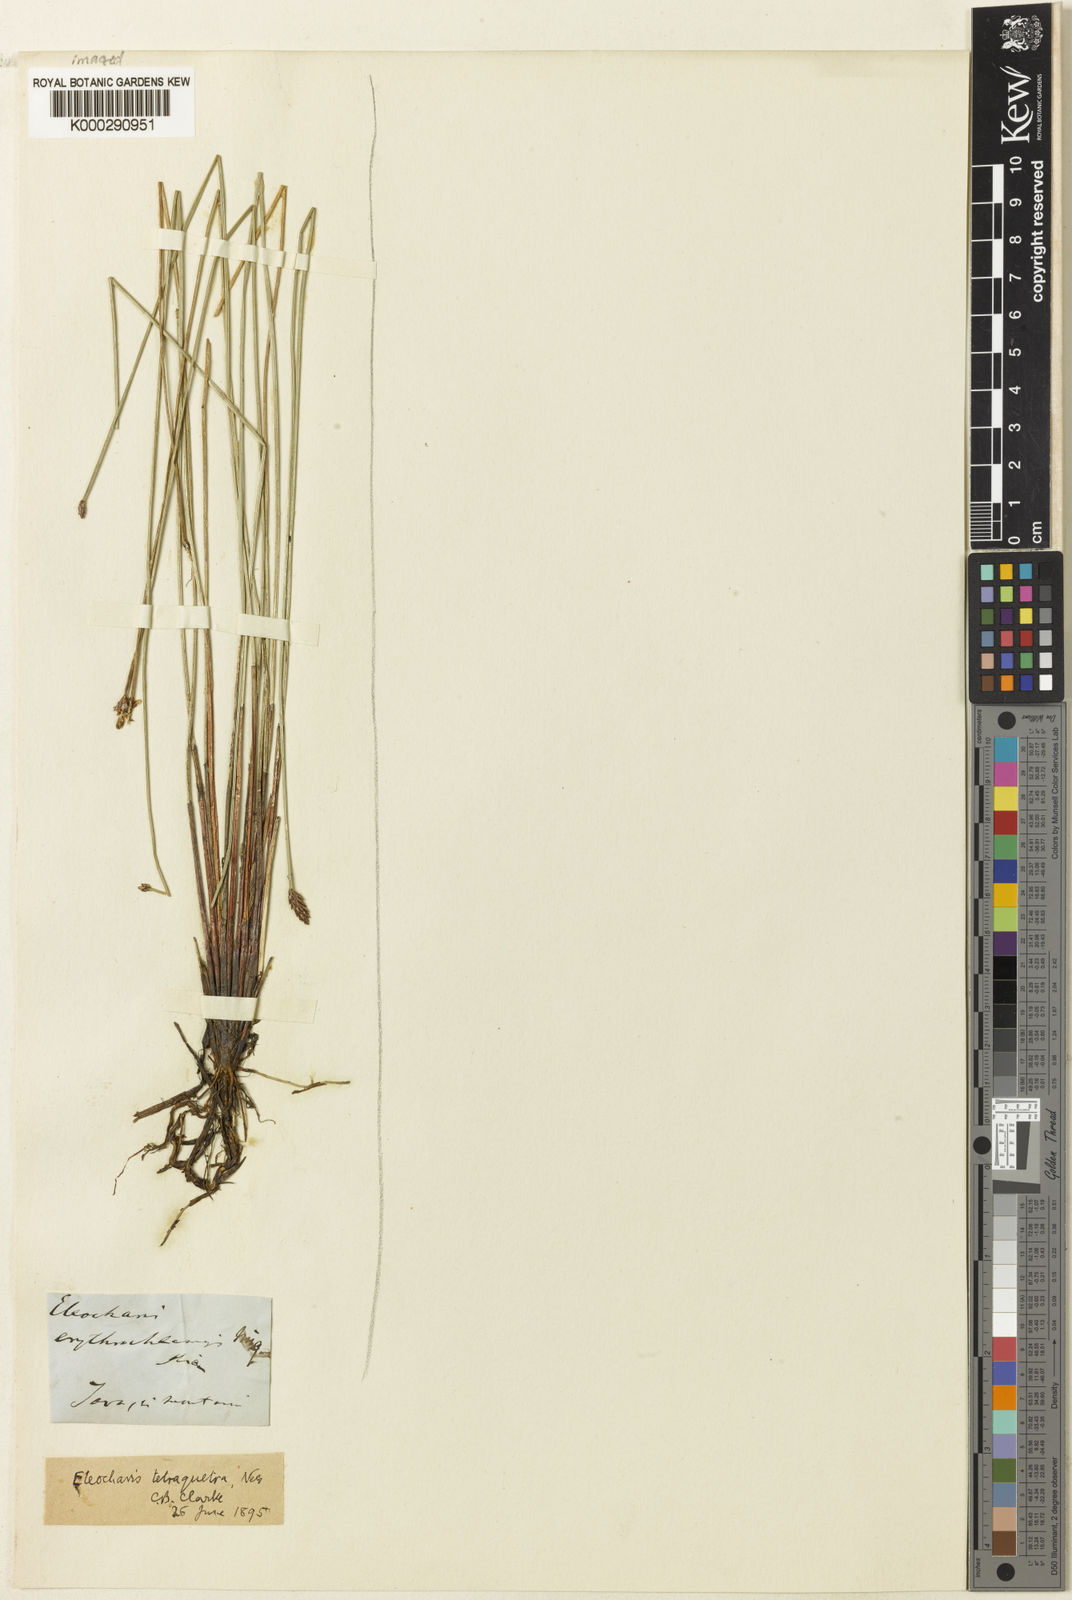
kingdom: Plantae
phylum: Tracheophyta
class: Liliopsida
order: Poales
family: Cyperaceae
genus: Eleocharis
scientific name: Eleocharis tetraquetra
